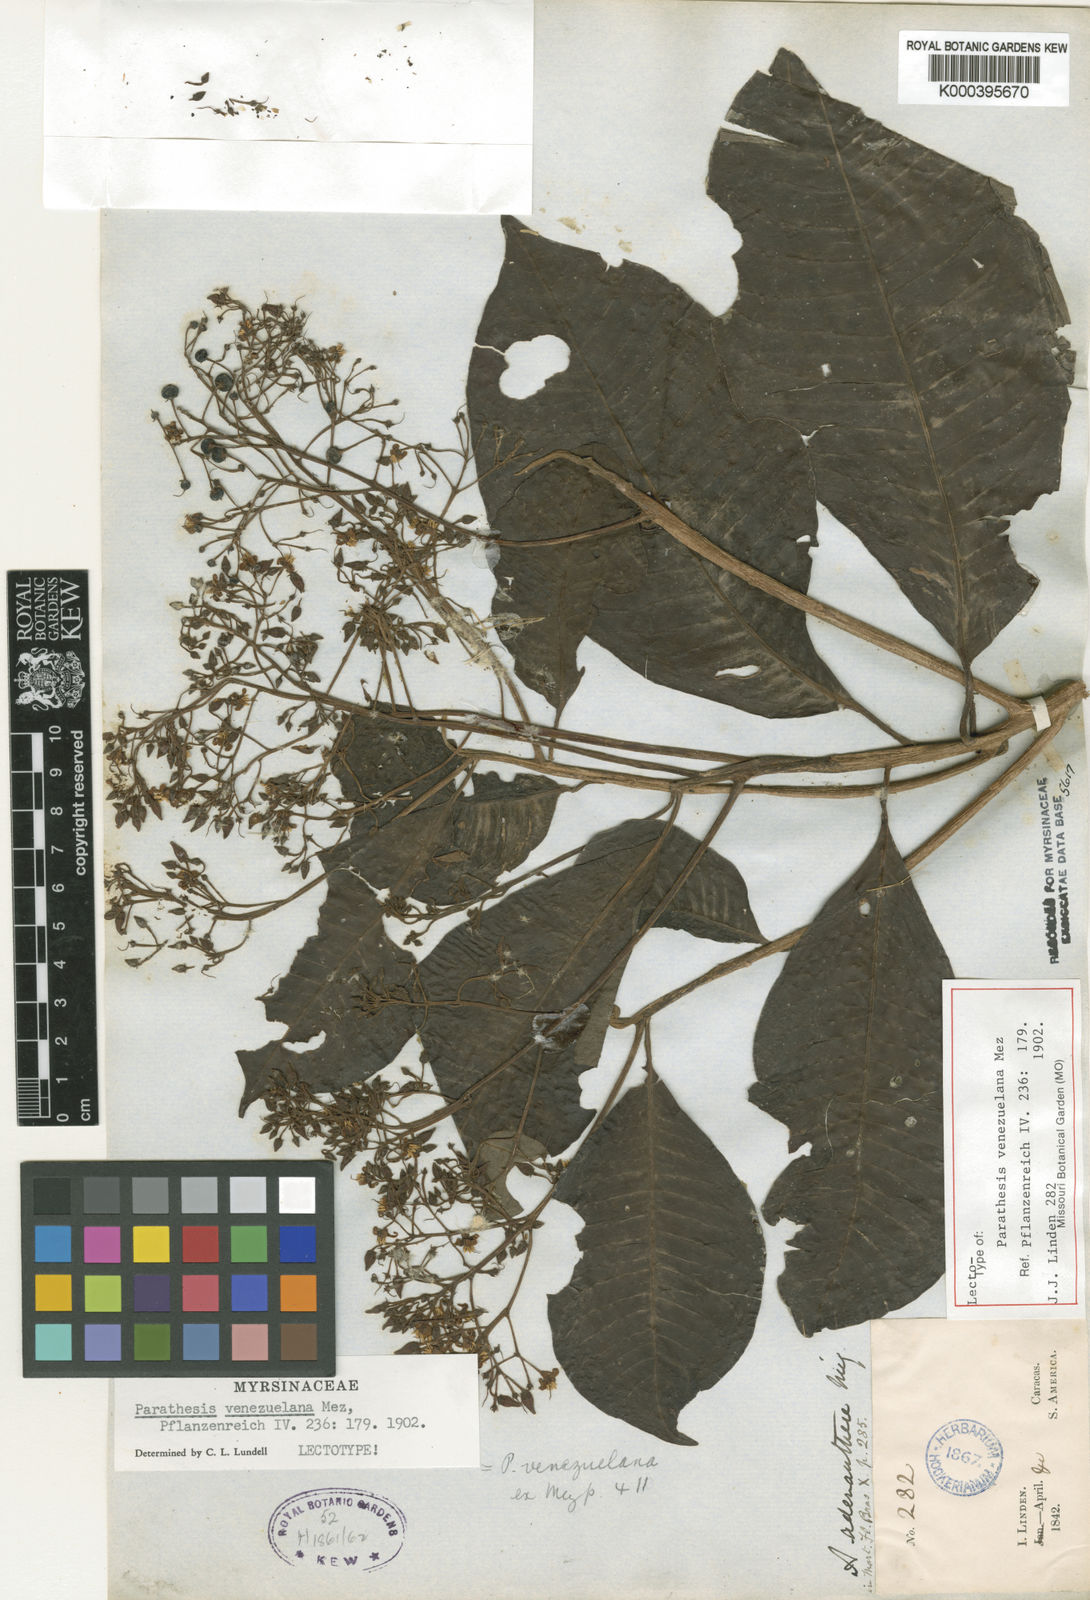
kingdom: Plantae
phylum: Tracheophyta
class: Magnoliopsida
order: Ericales
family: Primulaceae
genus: Parathesis
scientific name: Parathesis venezuelana
